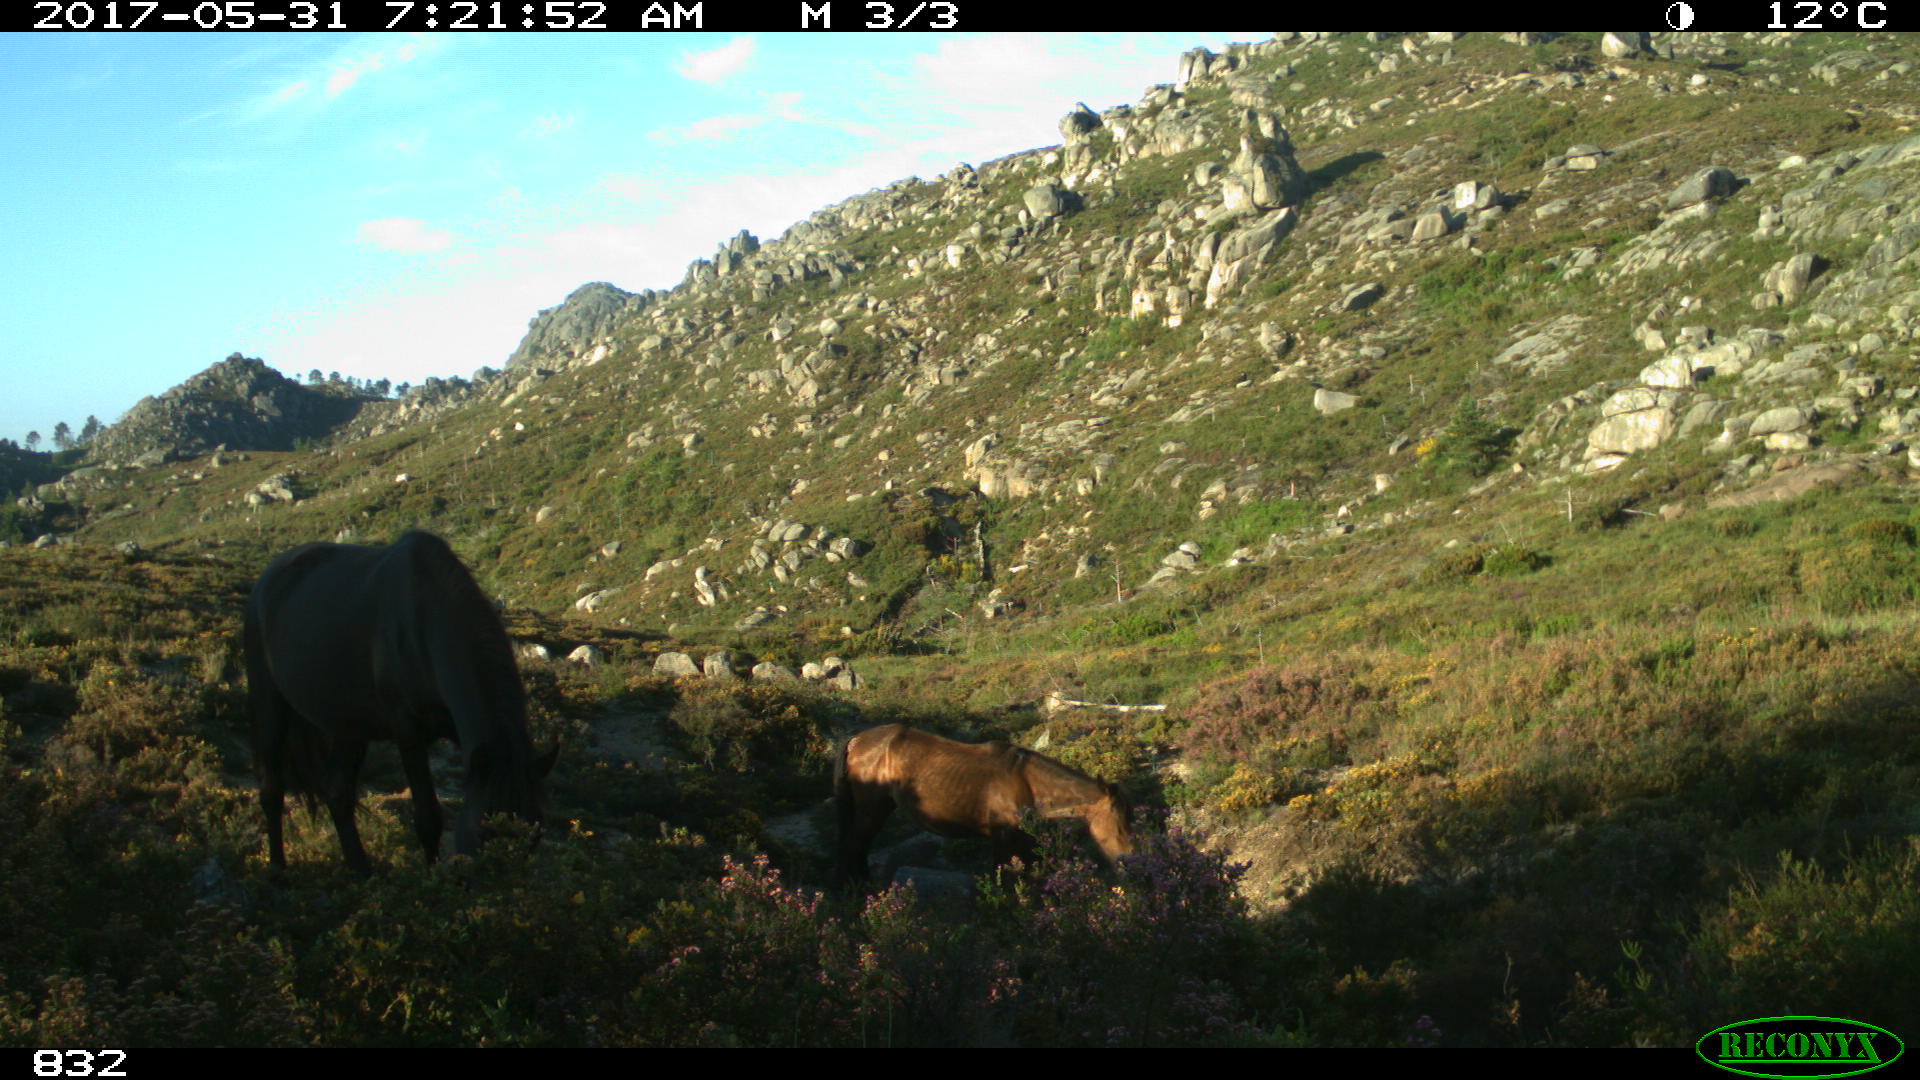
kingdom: Animalia
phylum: Chordata
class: Mammalia
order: Perissodactyla
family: Equidae
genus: Equus
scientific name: Equus caballus
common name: Horse
